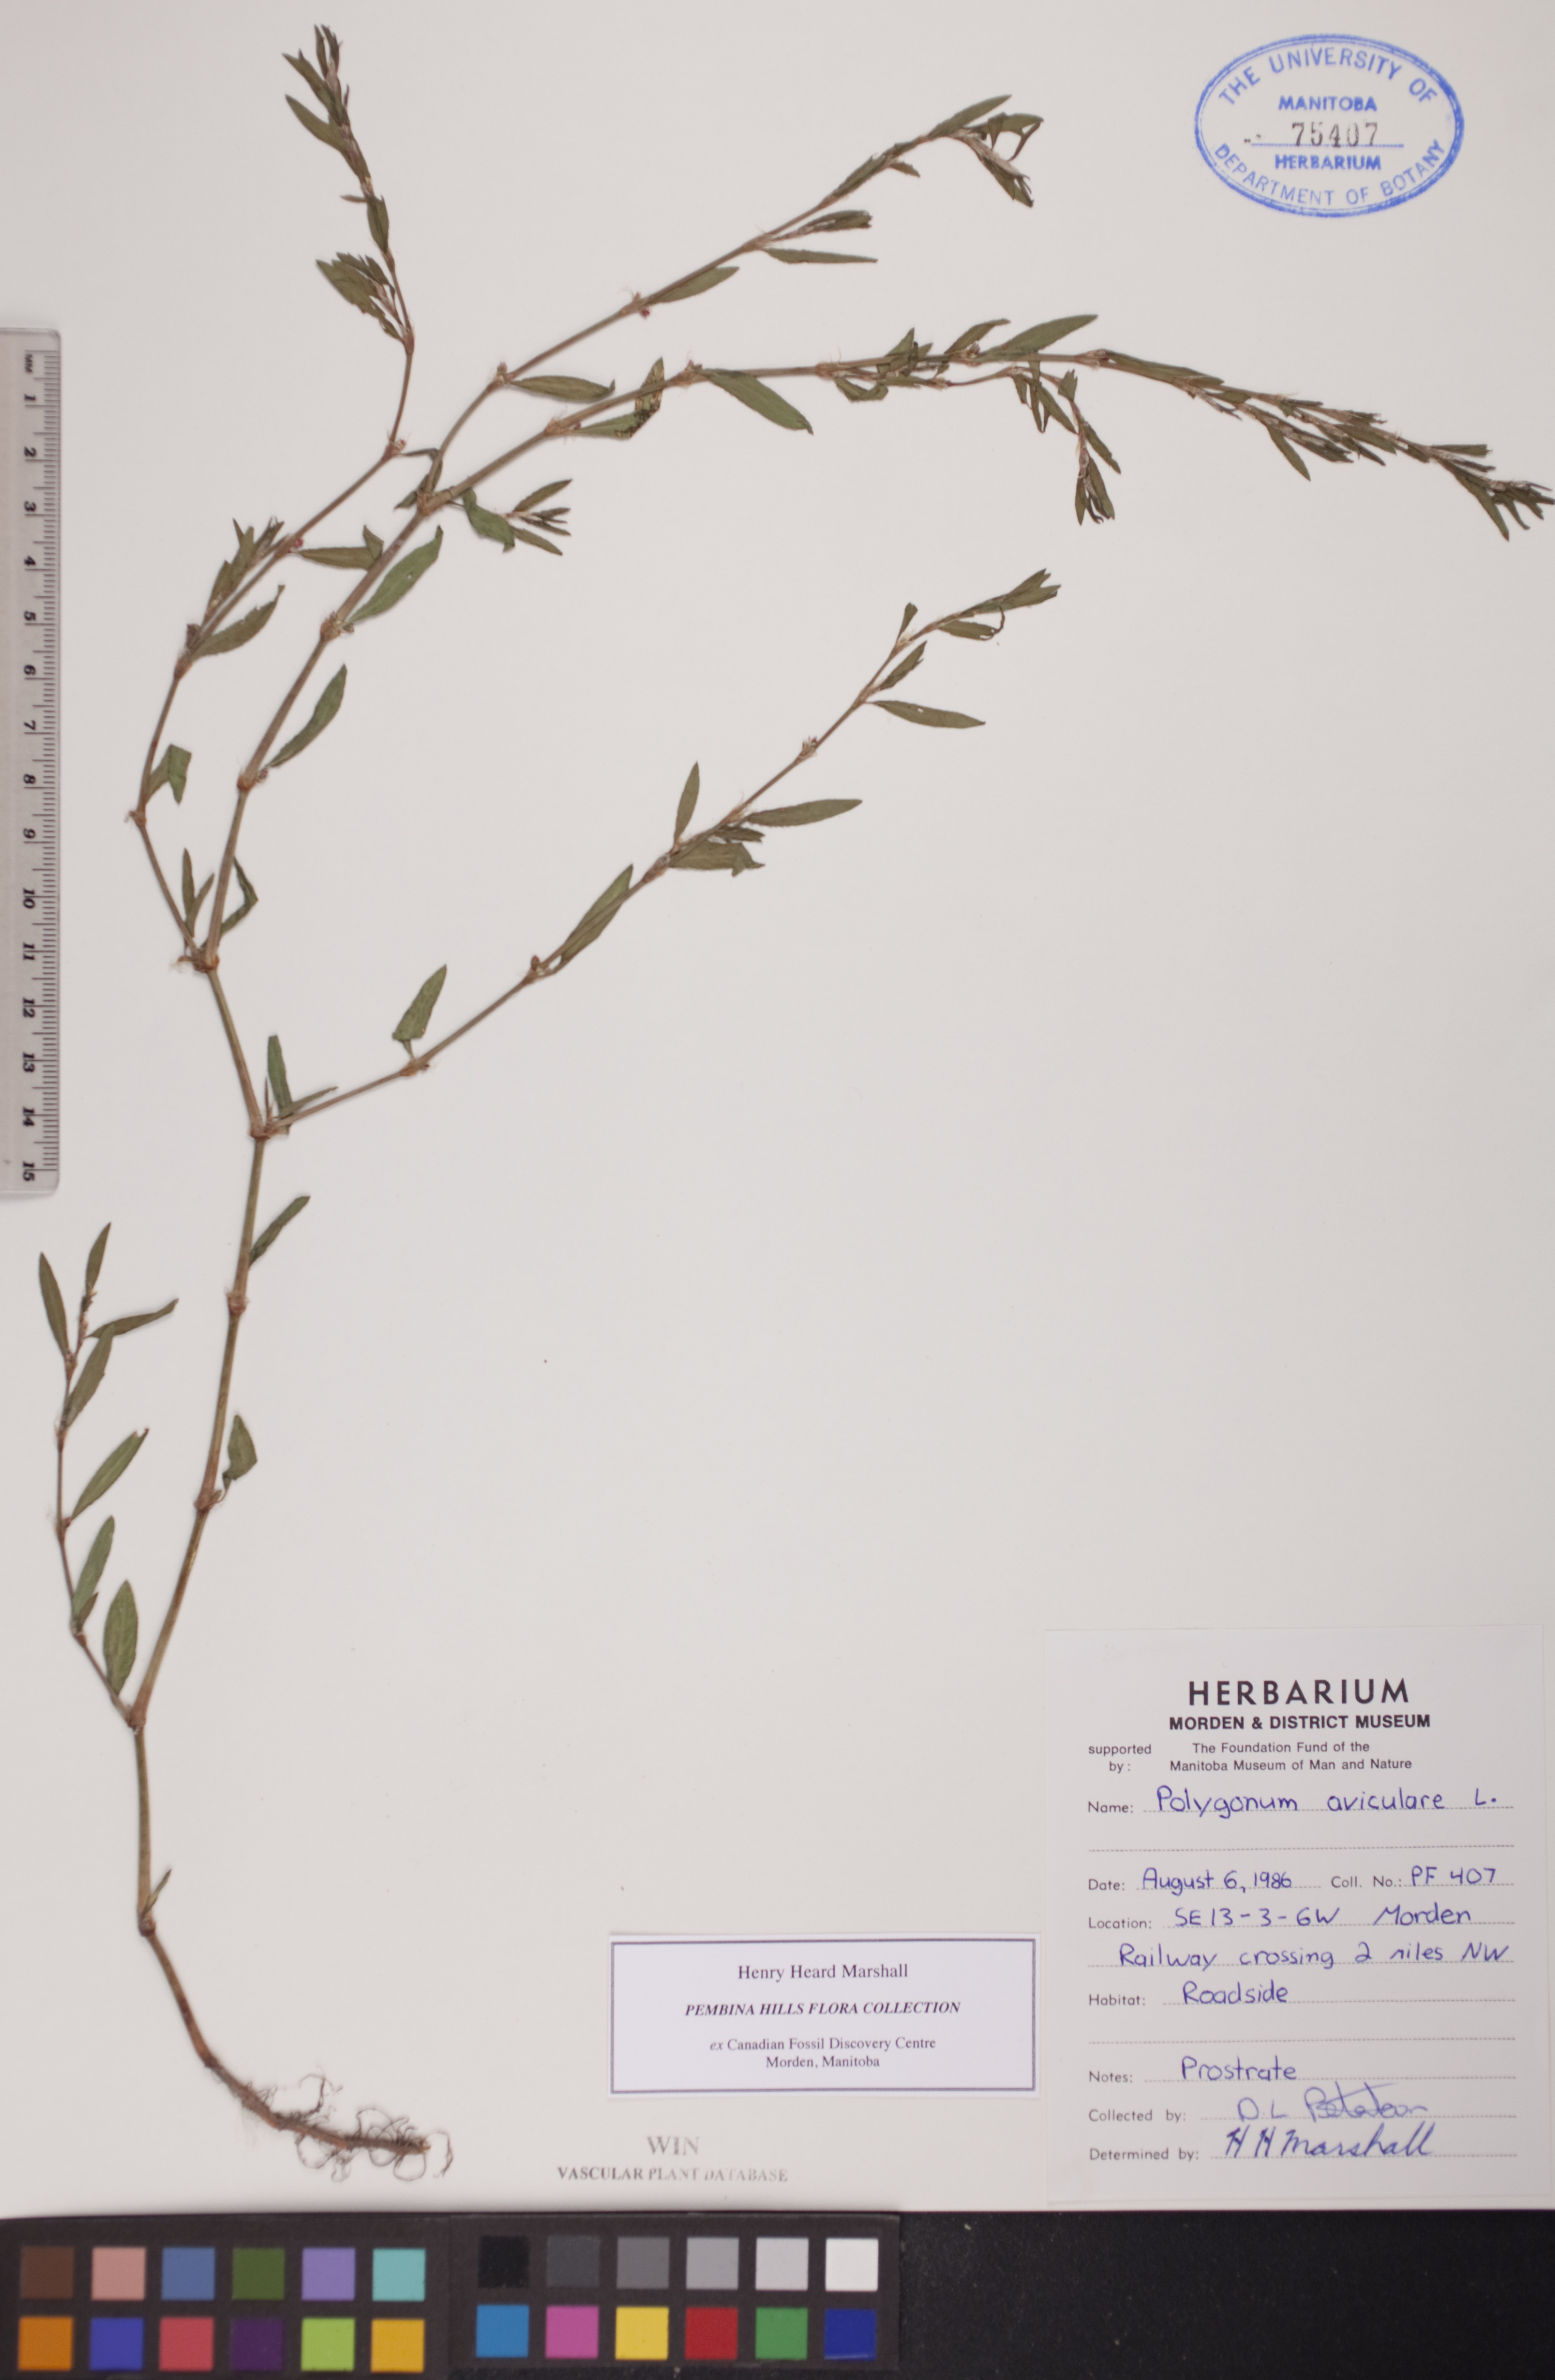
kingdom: Plantae
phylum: Tracheophyta
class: Magnoliopsida
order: Caryophyllales
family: Polygonaceae
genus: Polygonum
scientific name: Polygonum aviculare
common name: Prostrate knotweed
